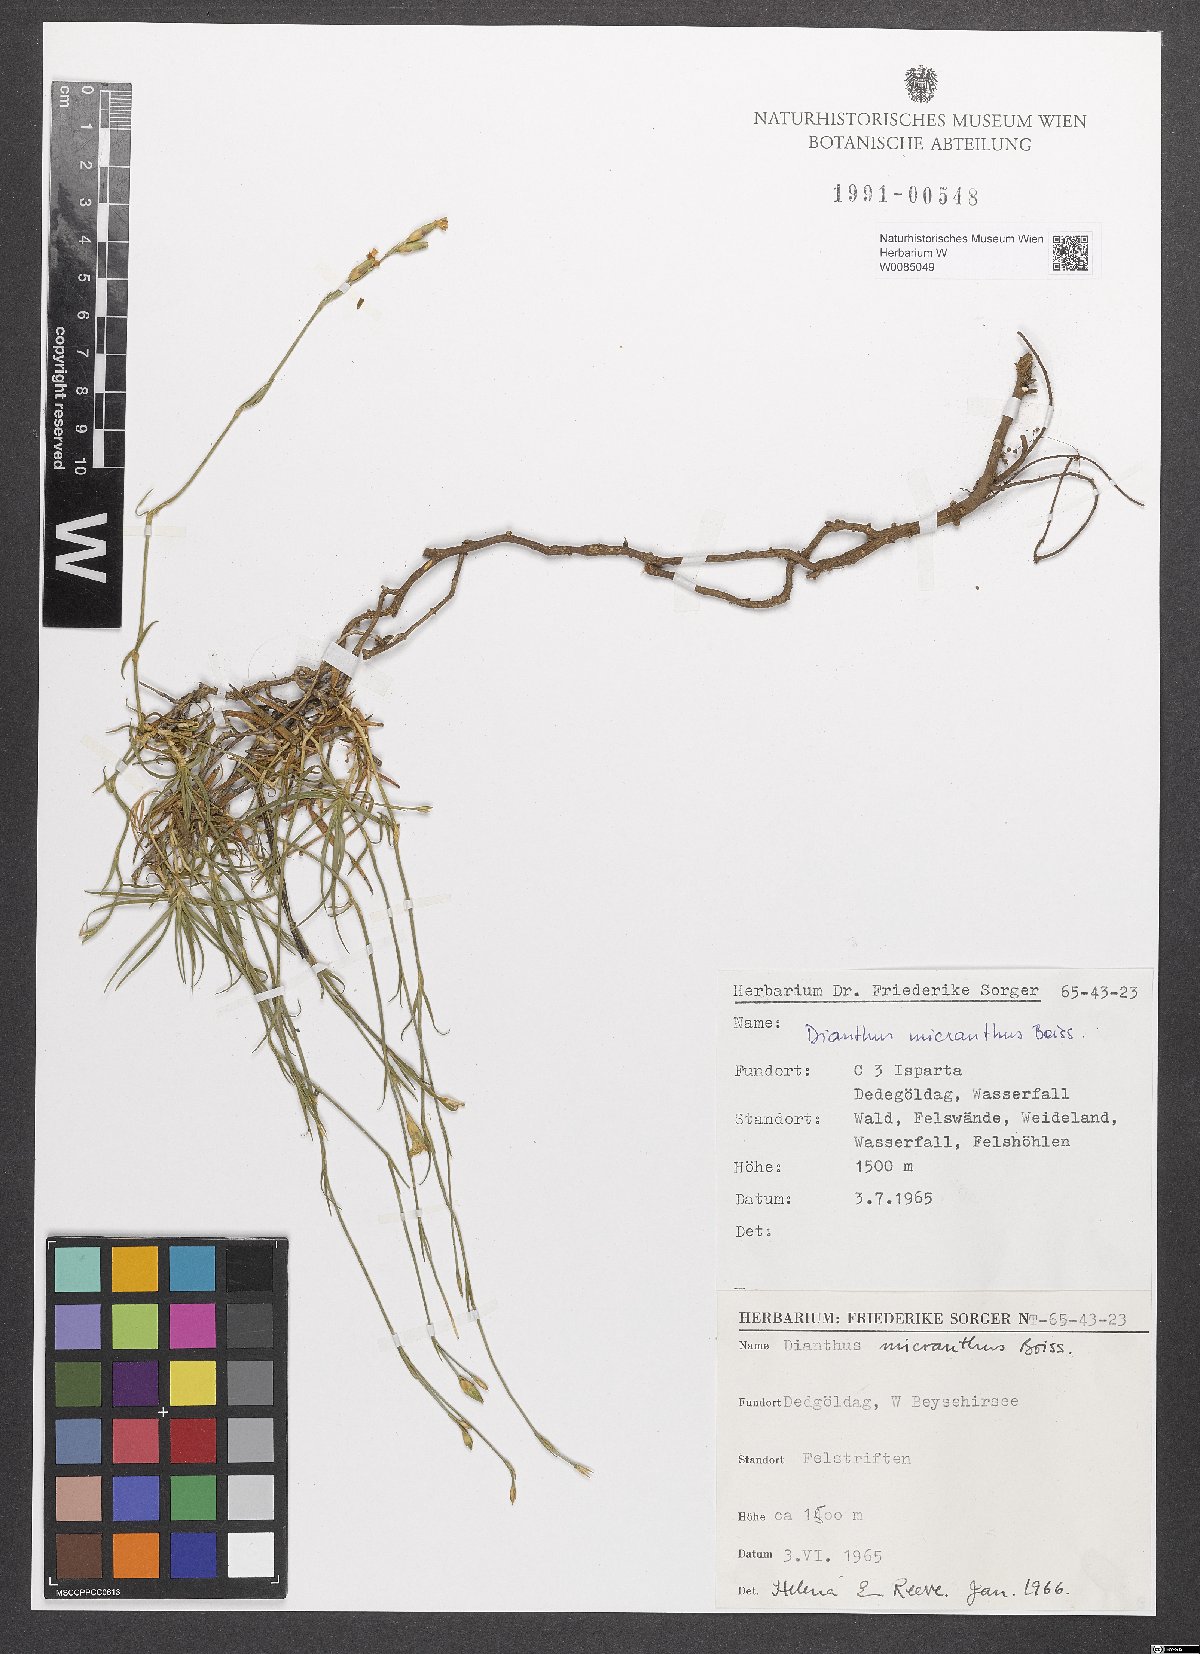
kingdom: Plantae
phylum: Tracheophyta
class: Magnoliopsida
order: Caryophyllales
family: Caryophyllaceae
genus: Dianthus
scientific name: Dianthus micranthus
